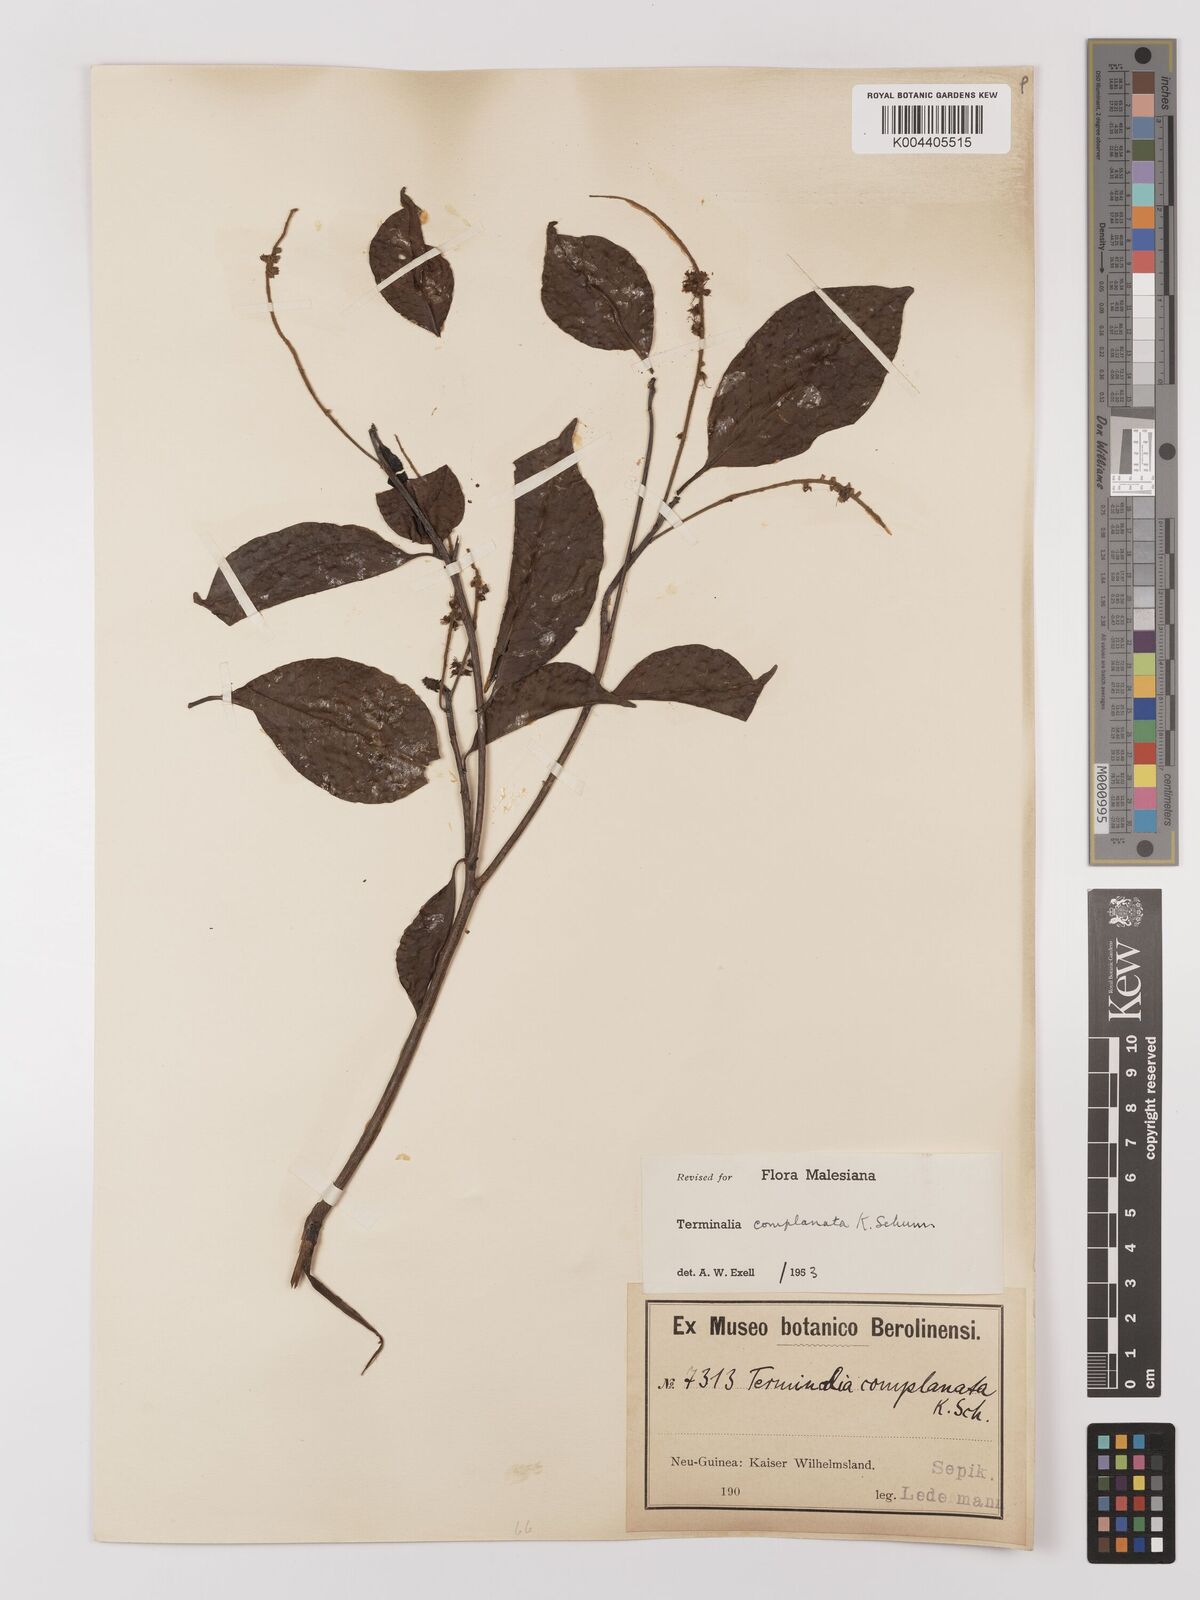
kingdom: Plantae
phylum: Tracheophyta
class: Magnoliopsida
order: Myrtales
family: Combretaceae
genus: Terminalia
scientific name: Terminalia complanata
